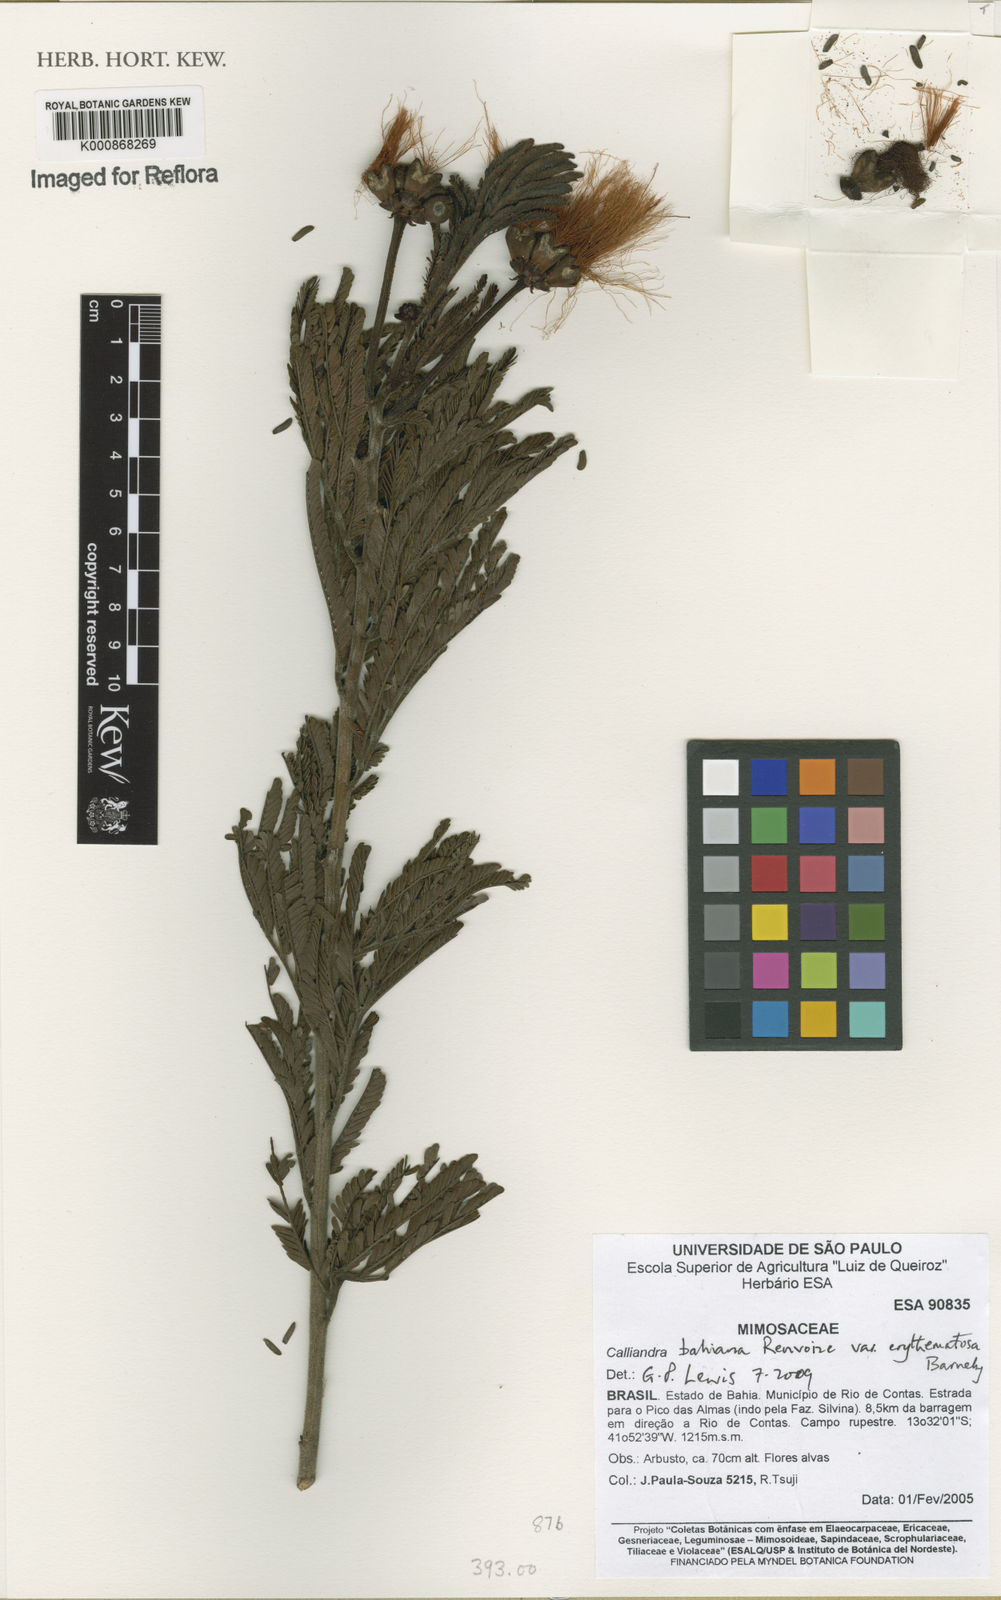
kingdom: Plantae
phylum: Tracheophyta
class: Magnoliopsida
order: Fabales
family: Fabaceae
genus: Calliandra
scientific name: Calliandra bahiana
